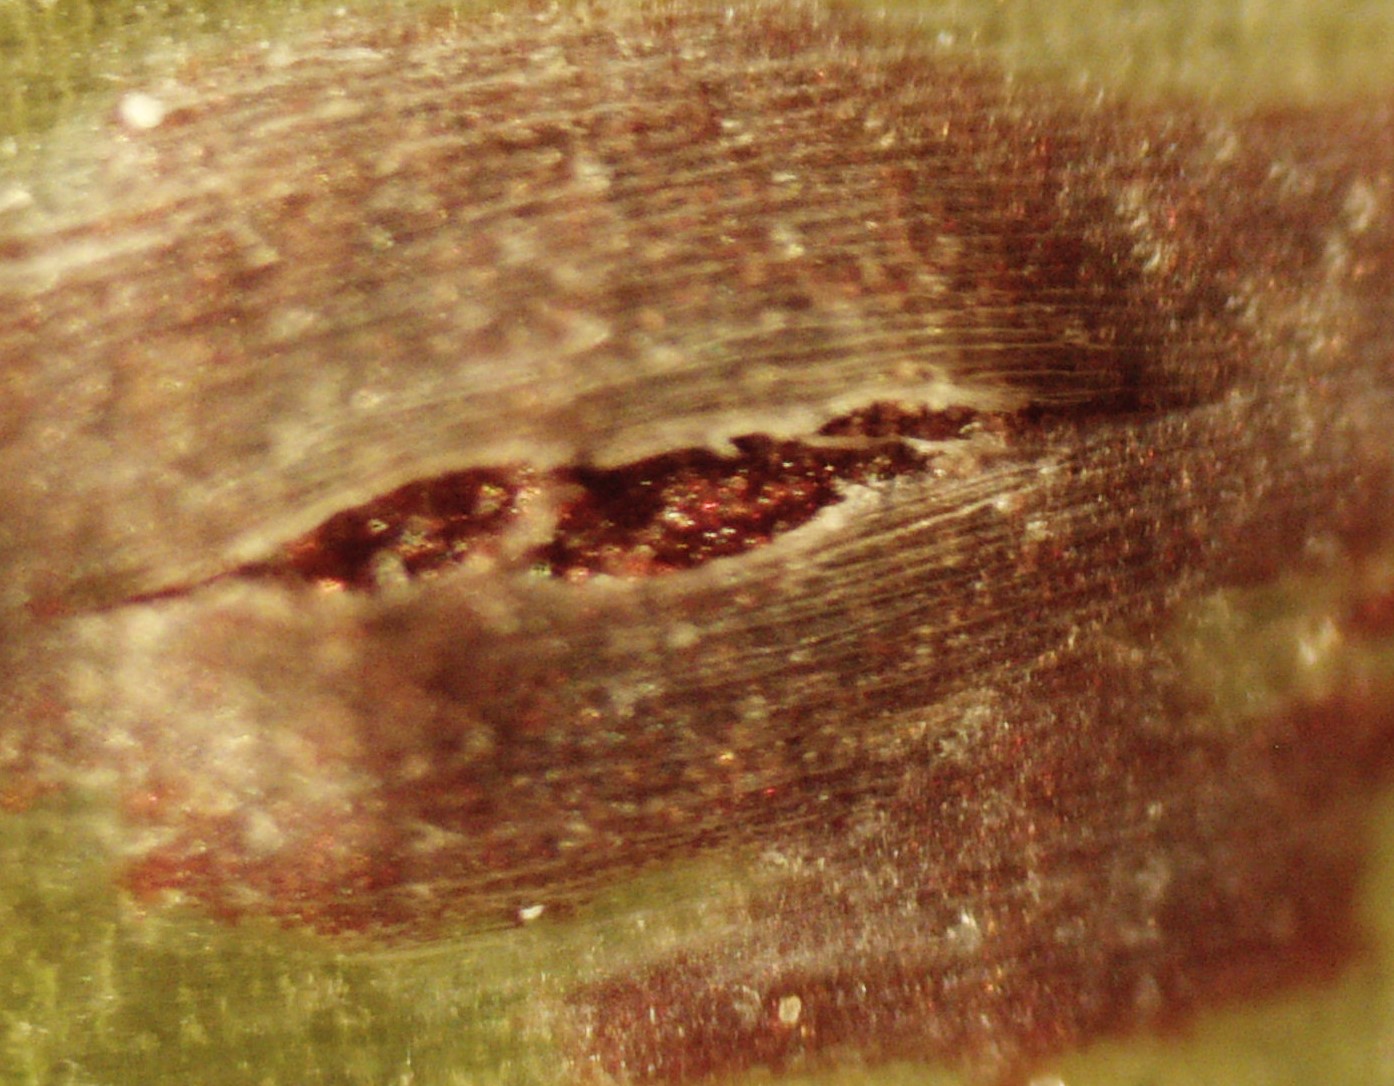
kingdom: Fungi
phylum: Basidiomycota
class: Pucciniomycetes
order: Pucciniales
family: Pucciniaceae
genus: Puccinia
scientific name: Puccinia porri
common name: Allium rust
